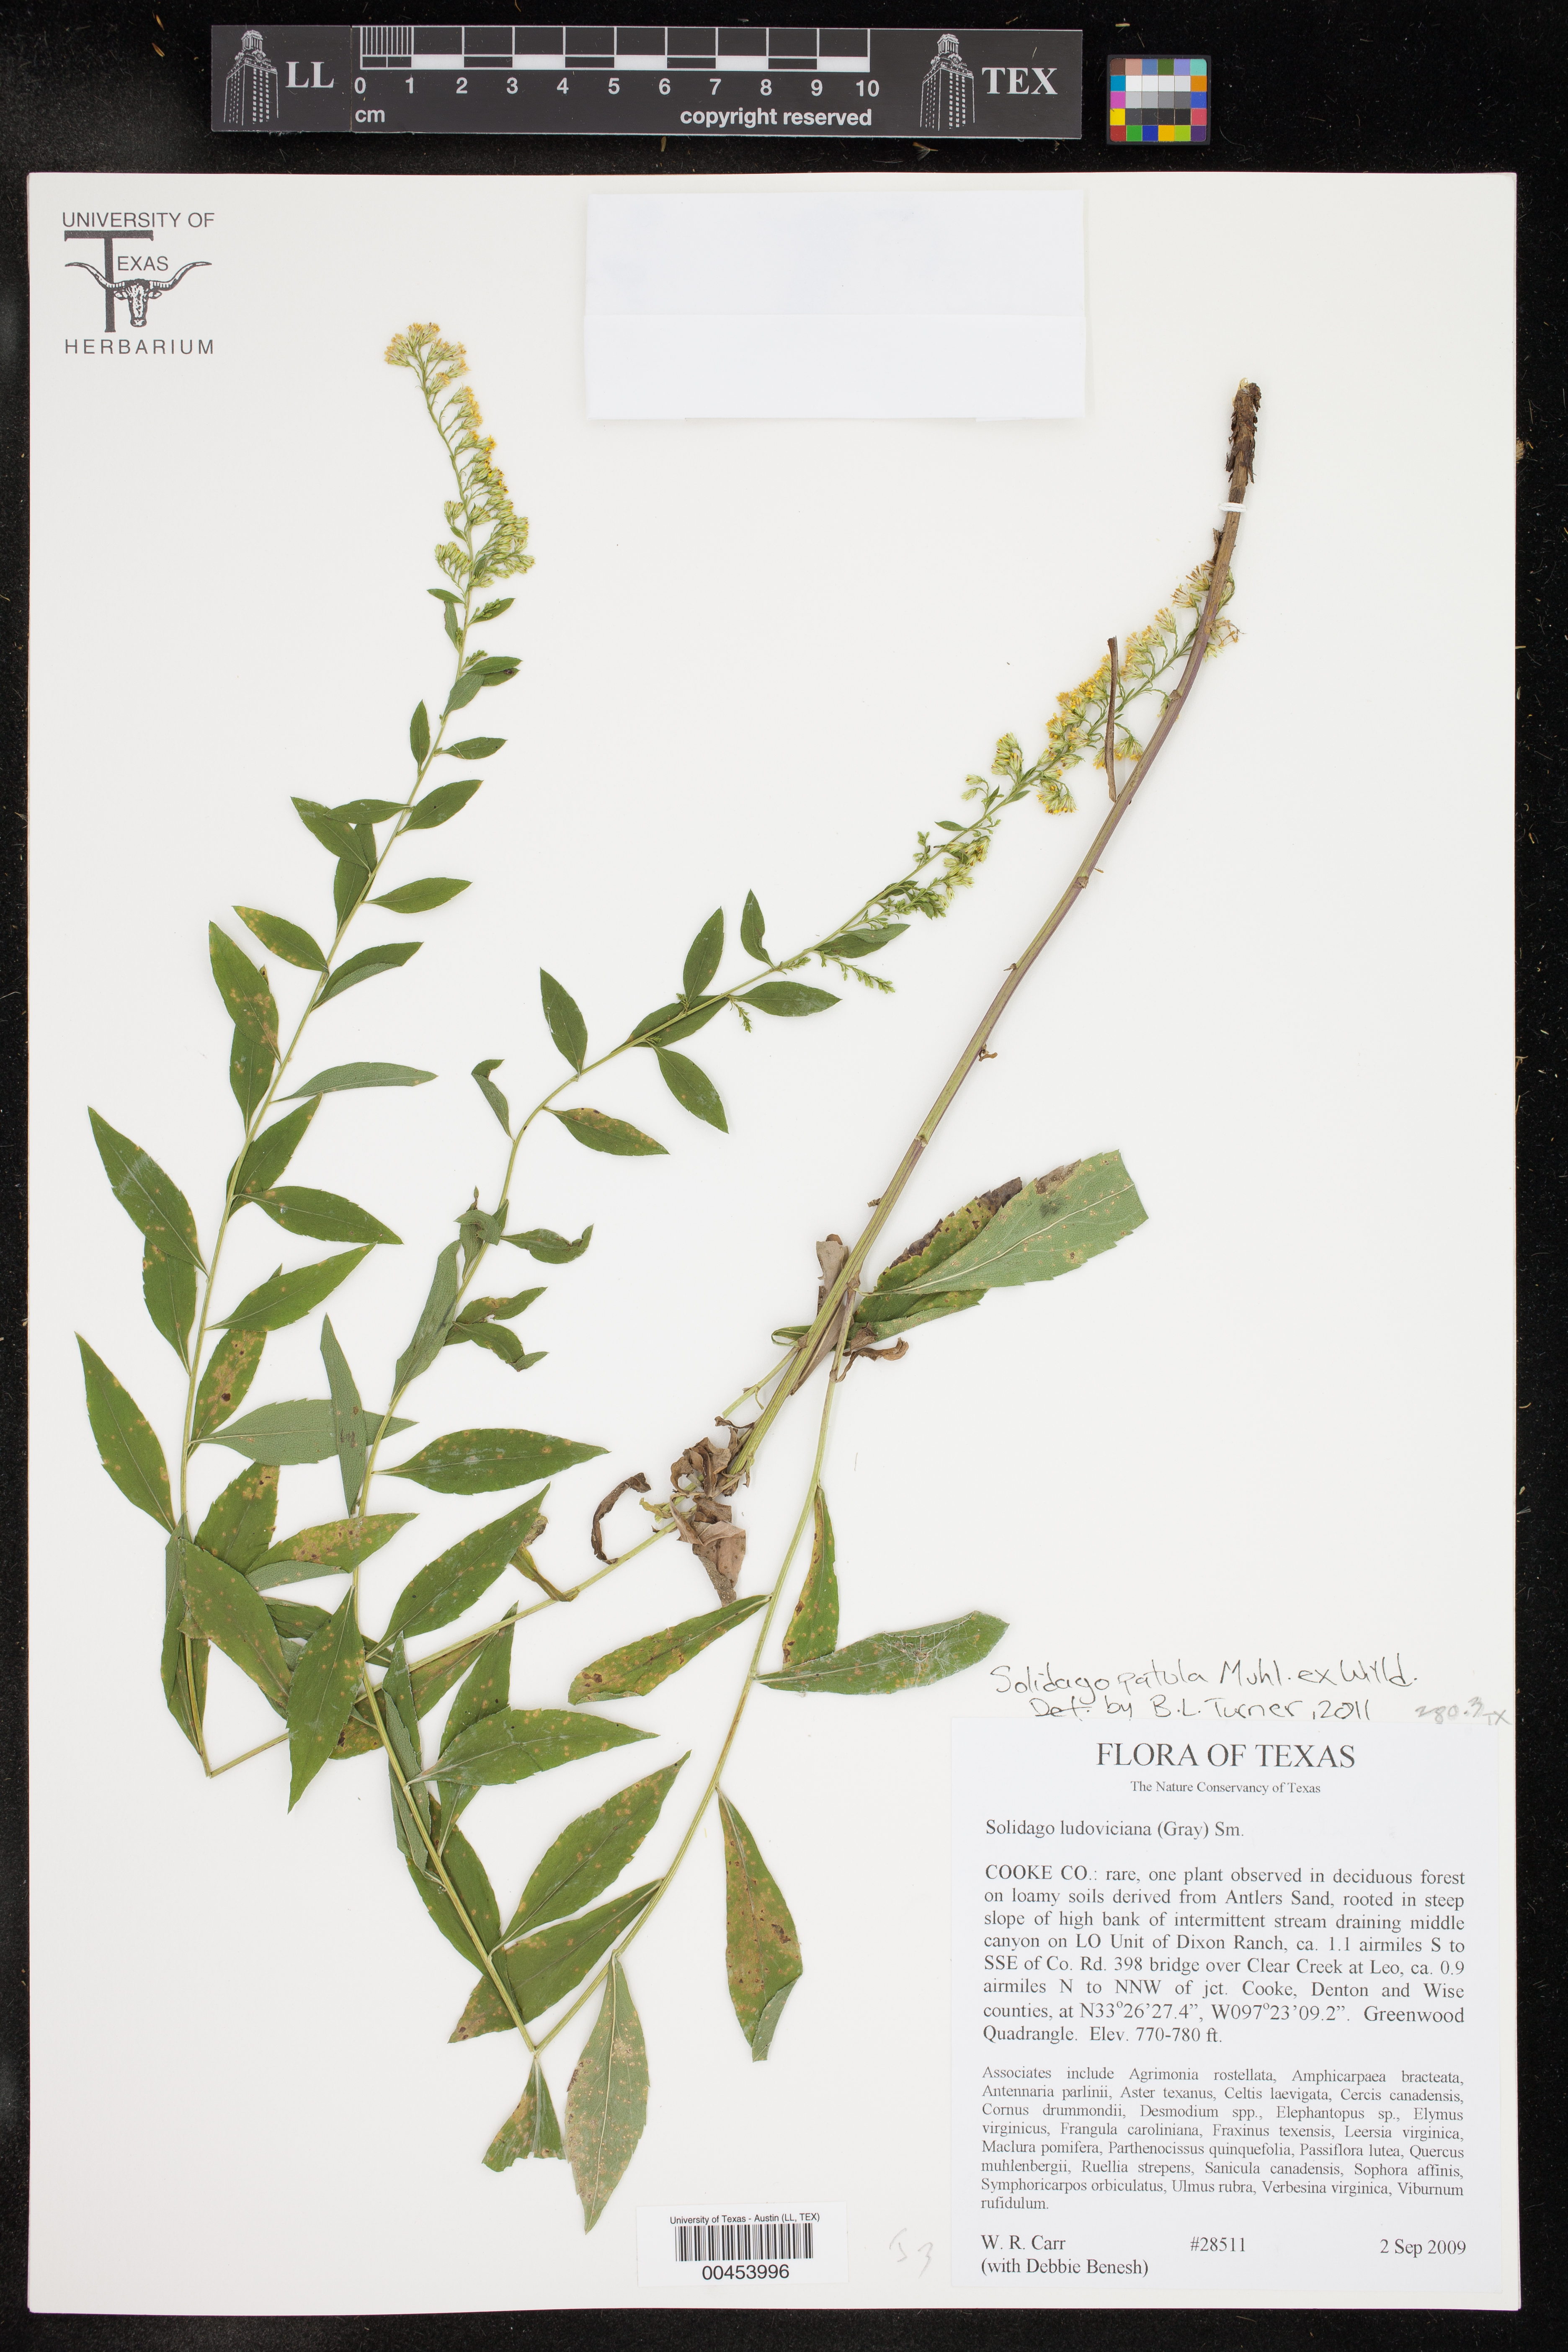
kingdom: Plantae
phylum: Tracheophyta
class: Magnoliopsida
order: Asterales
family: Asteraceae
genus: Solidago
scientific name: Solidago patula
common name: Rough-leaf goldenrod
